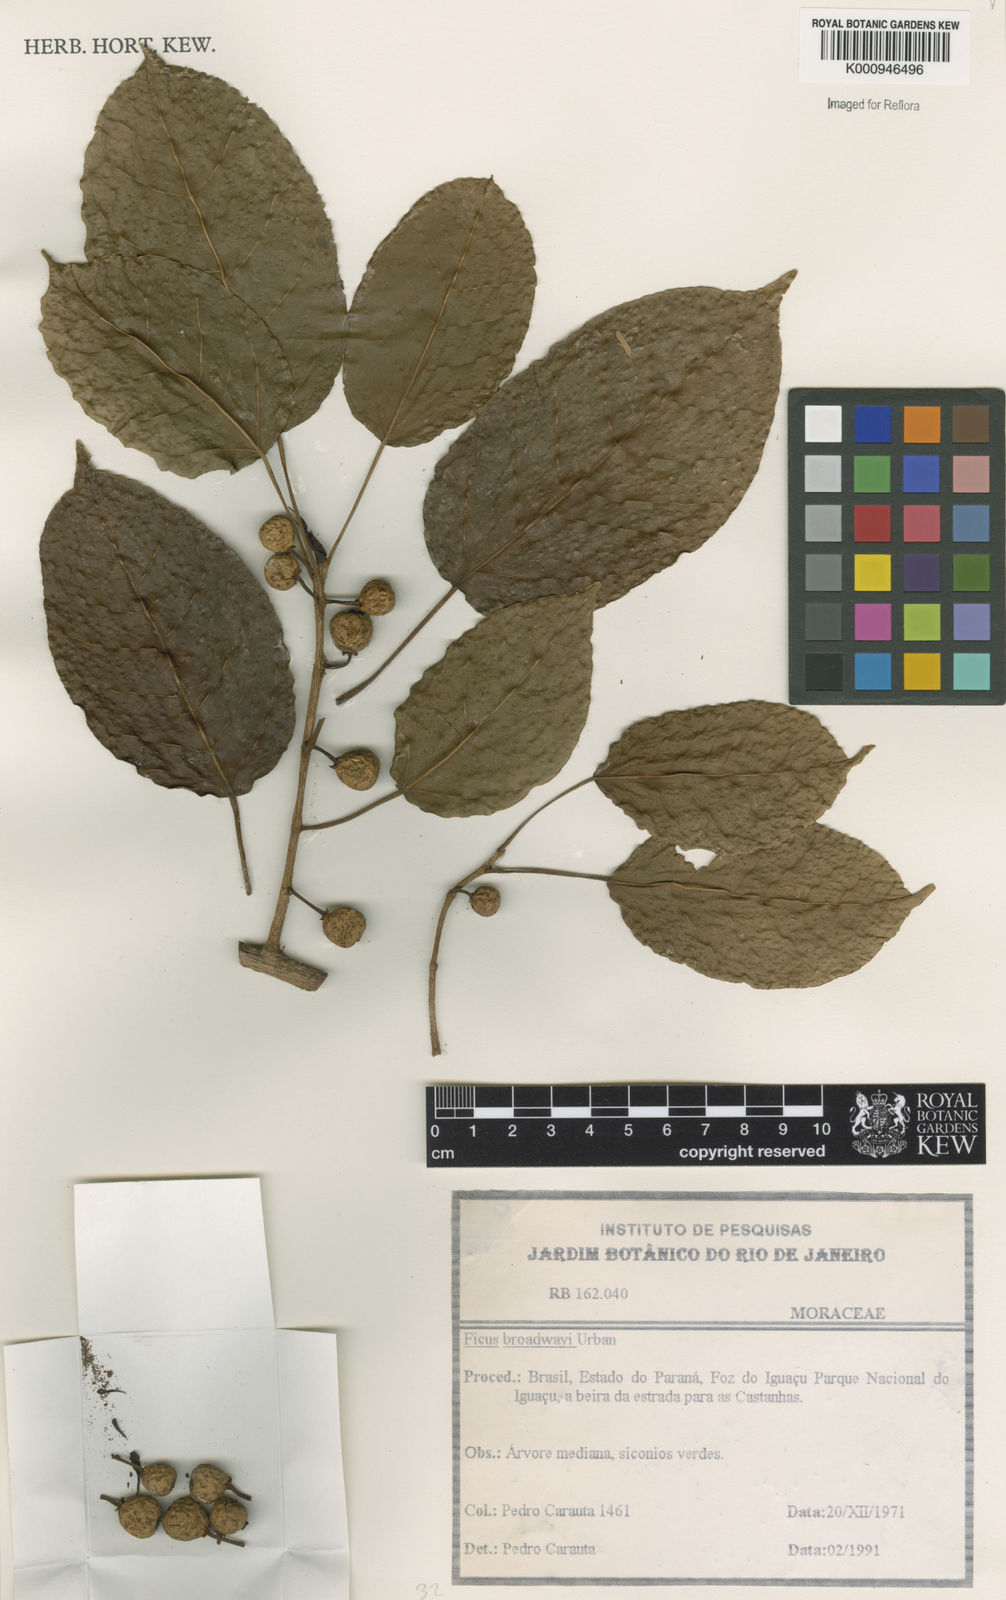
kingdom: Plantae
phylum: Tracheophyta
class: Magnoliopsida
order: Rosales
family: Moraceae
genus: Ficus
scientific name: Ficus broadwayi
